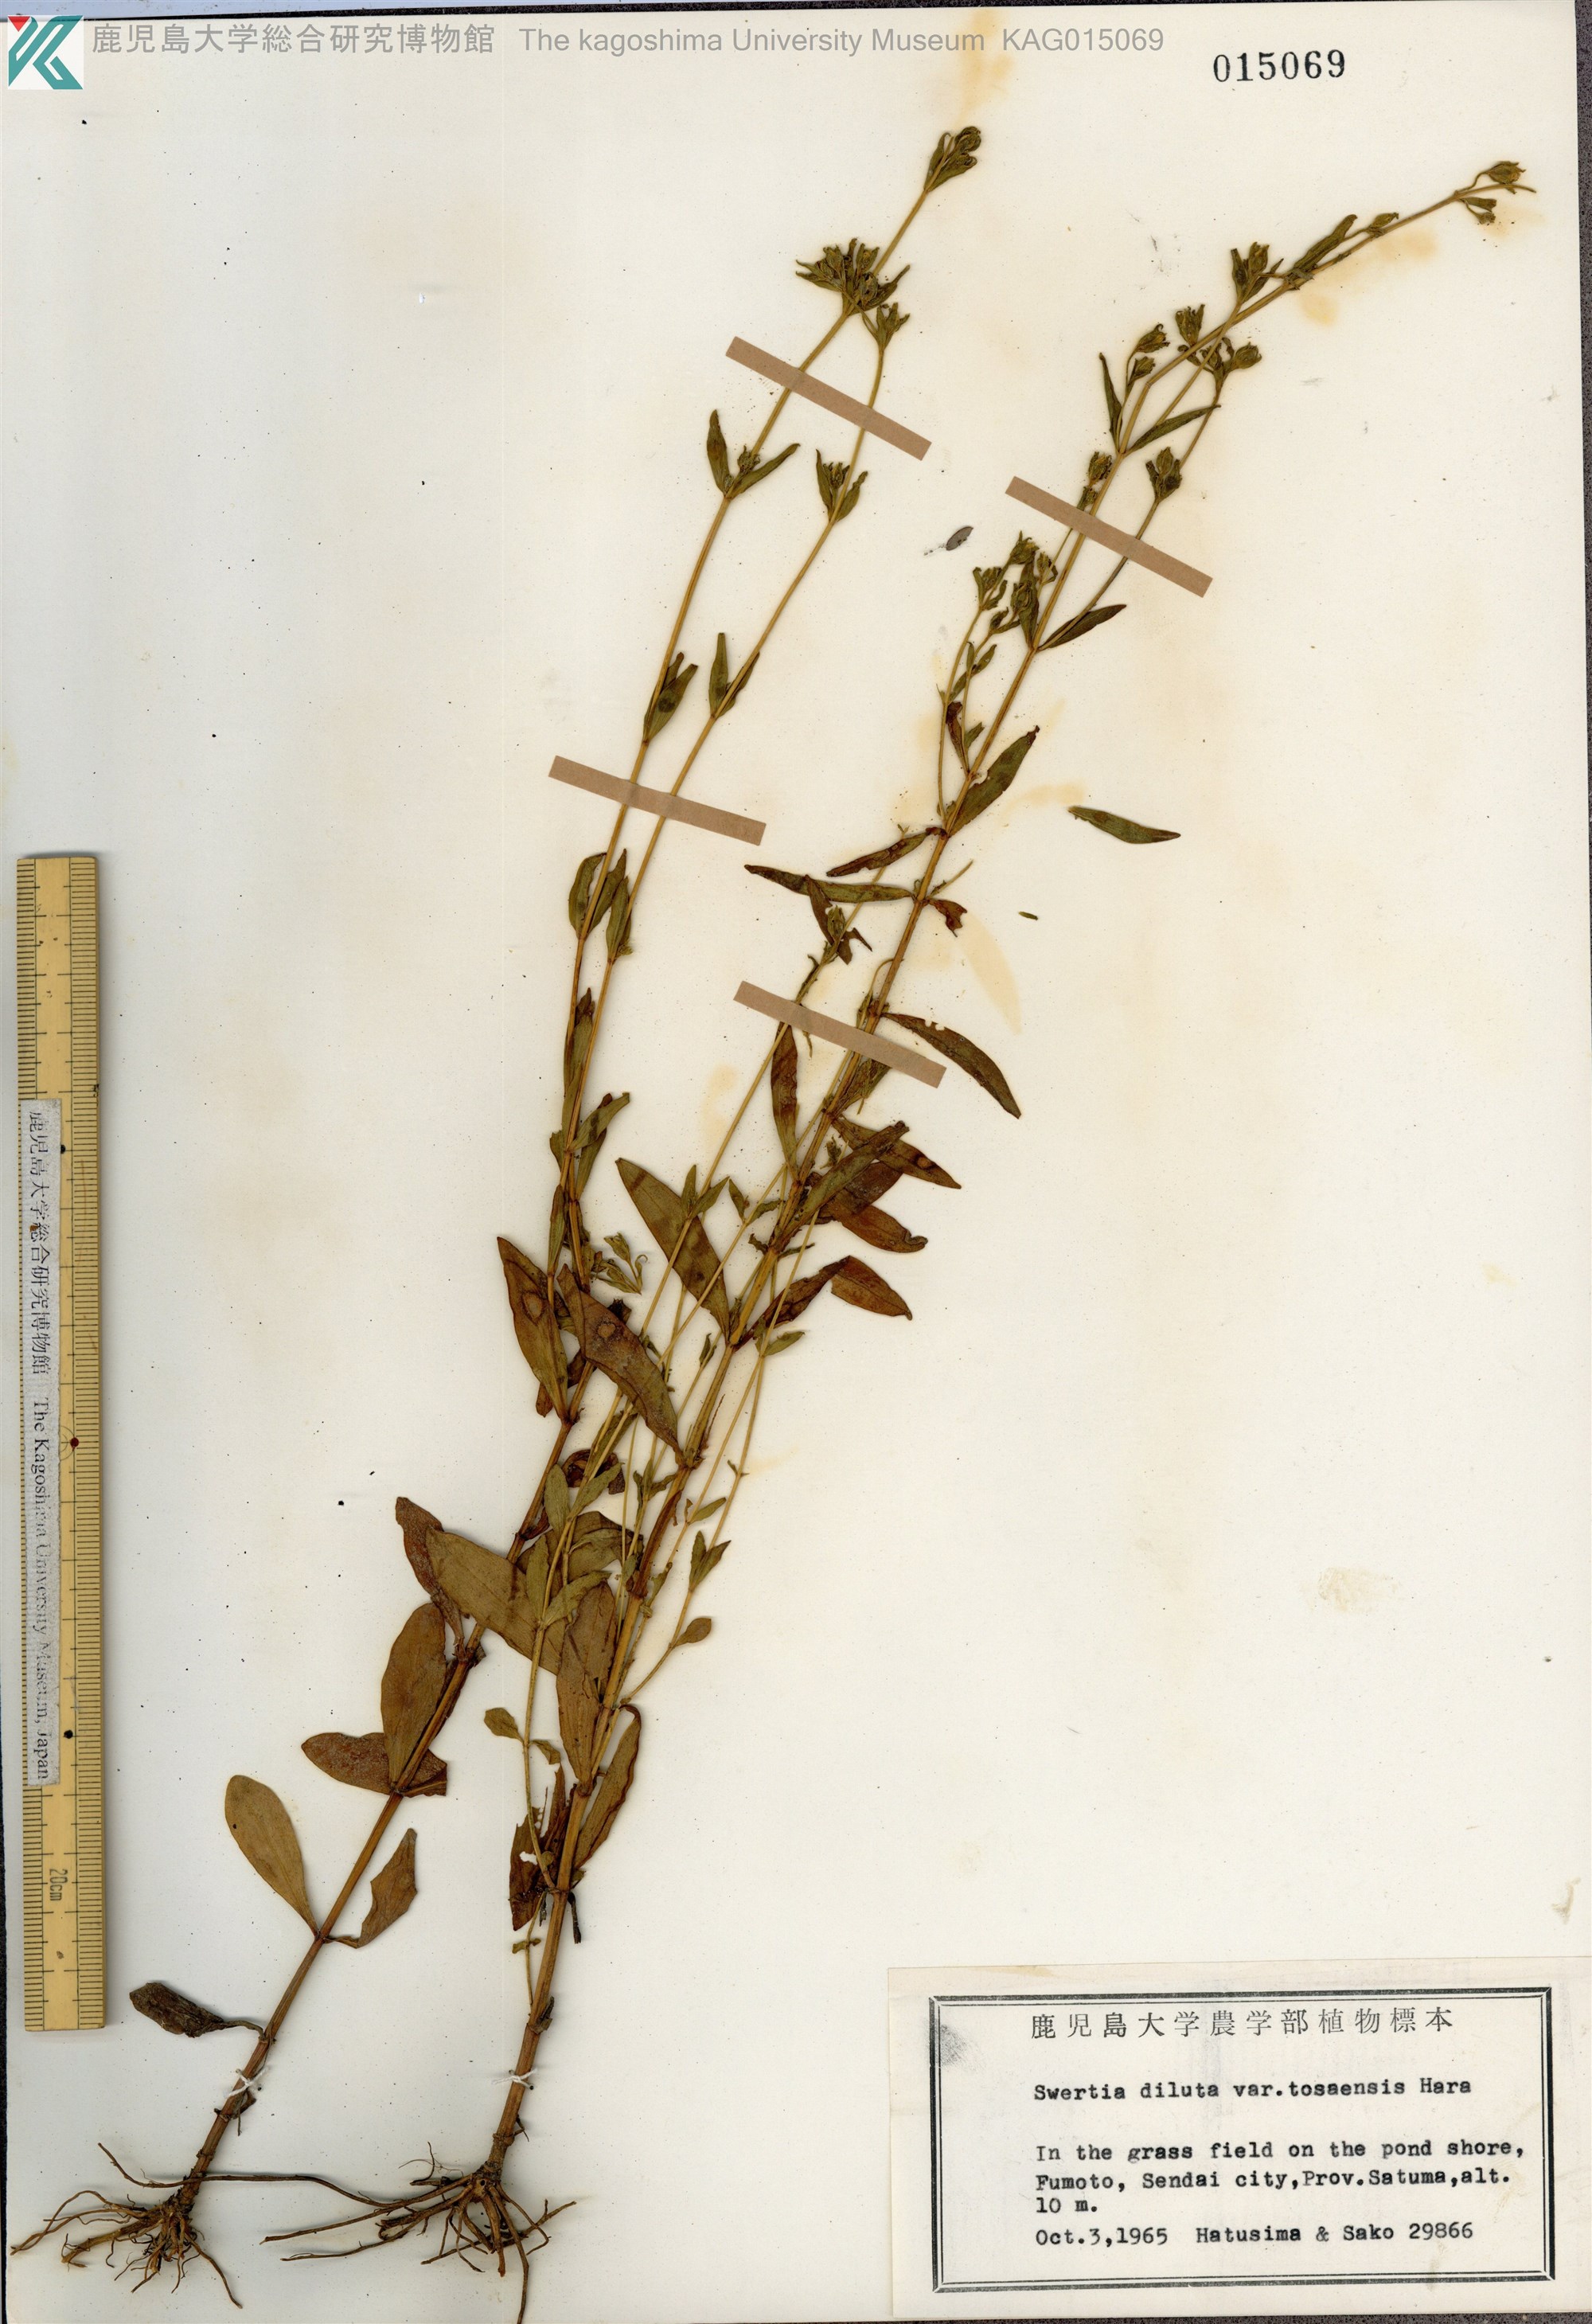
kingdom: Plantae
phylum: Tracheophyta
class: Magnoliopsida
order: Gentianales
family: Gentianaceae
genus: Swertia
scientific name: Swertia diluta
